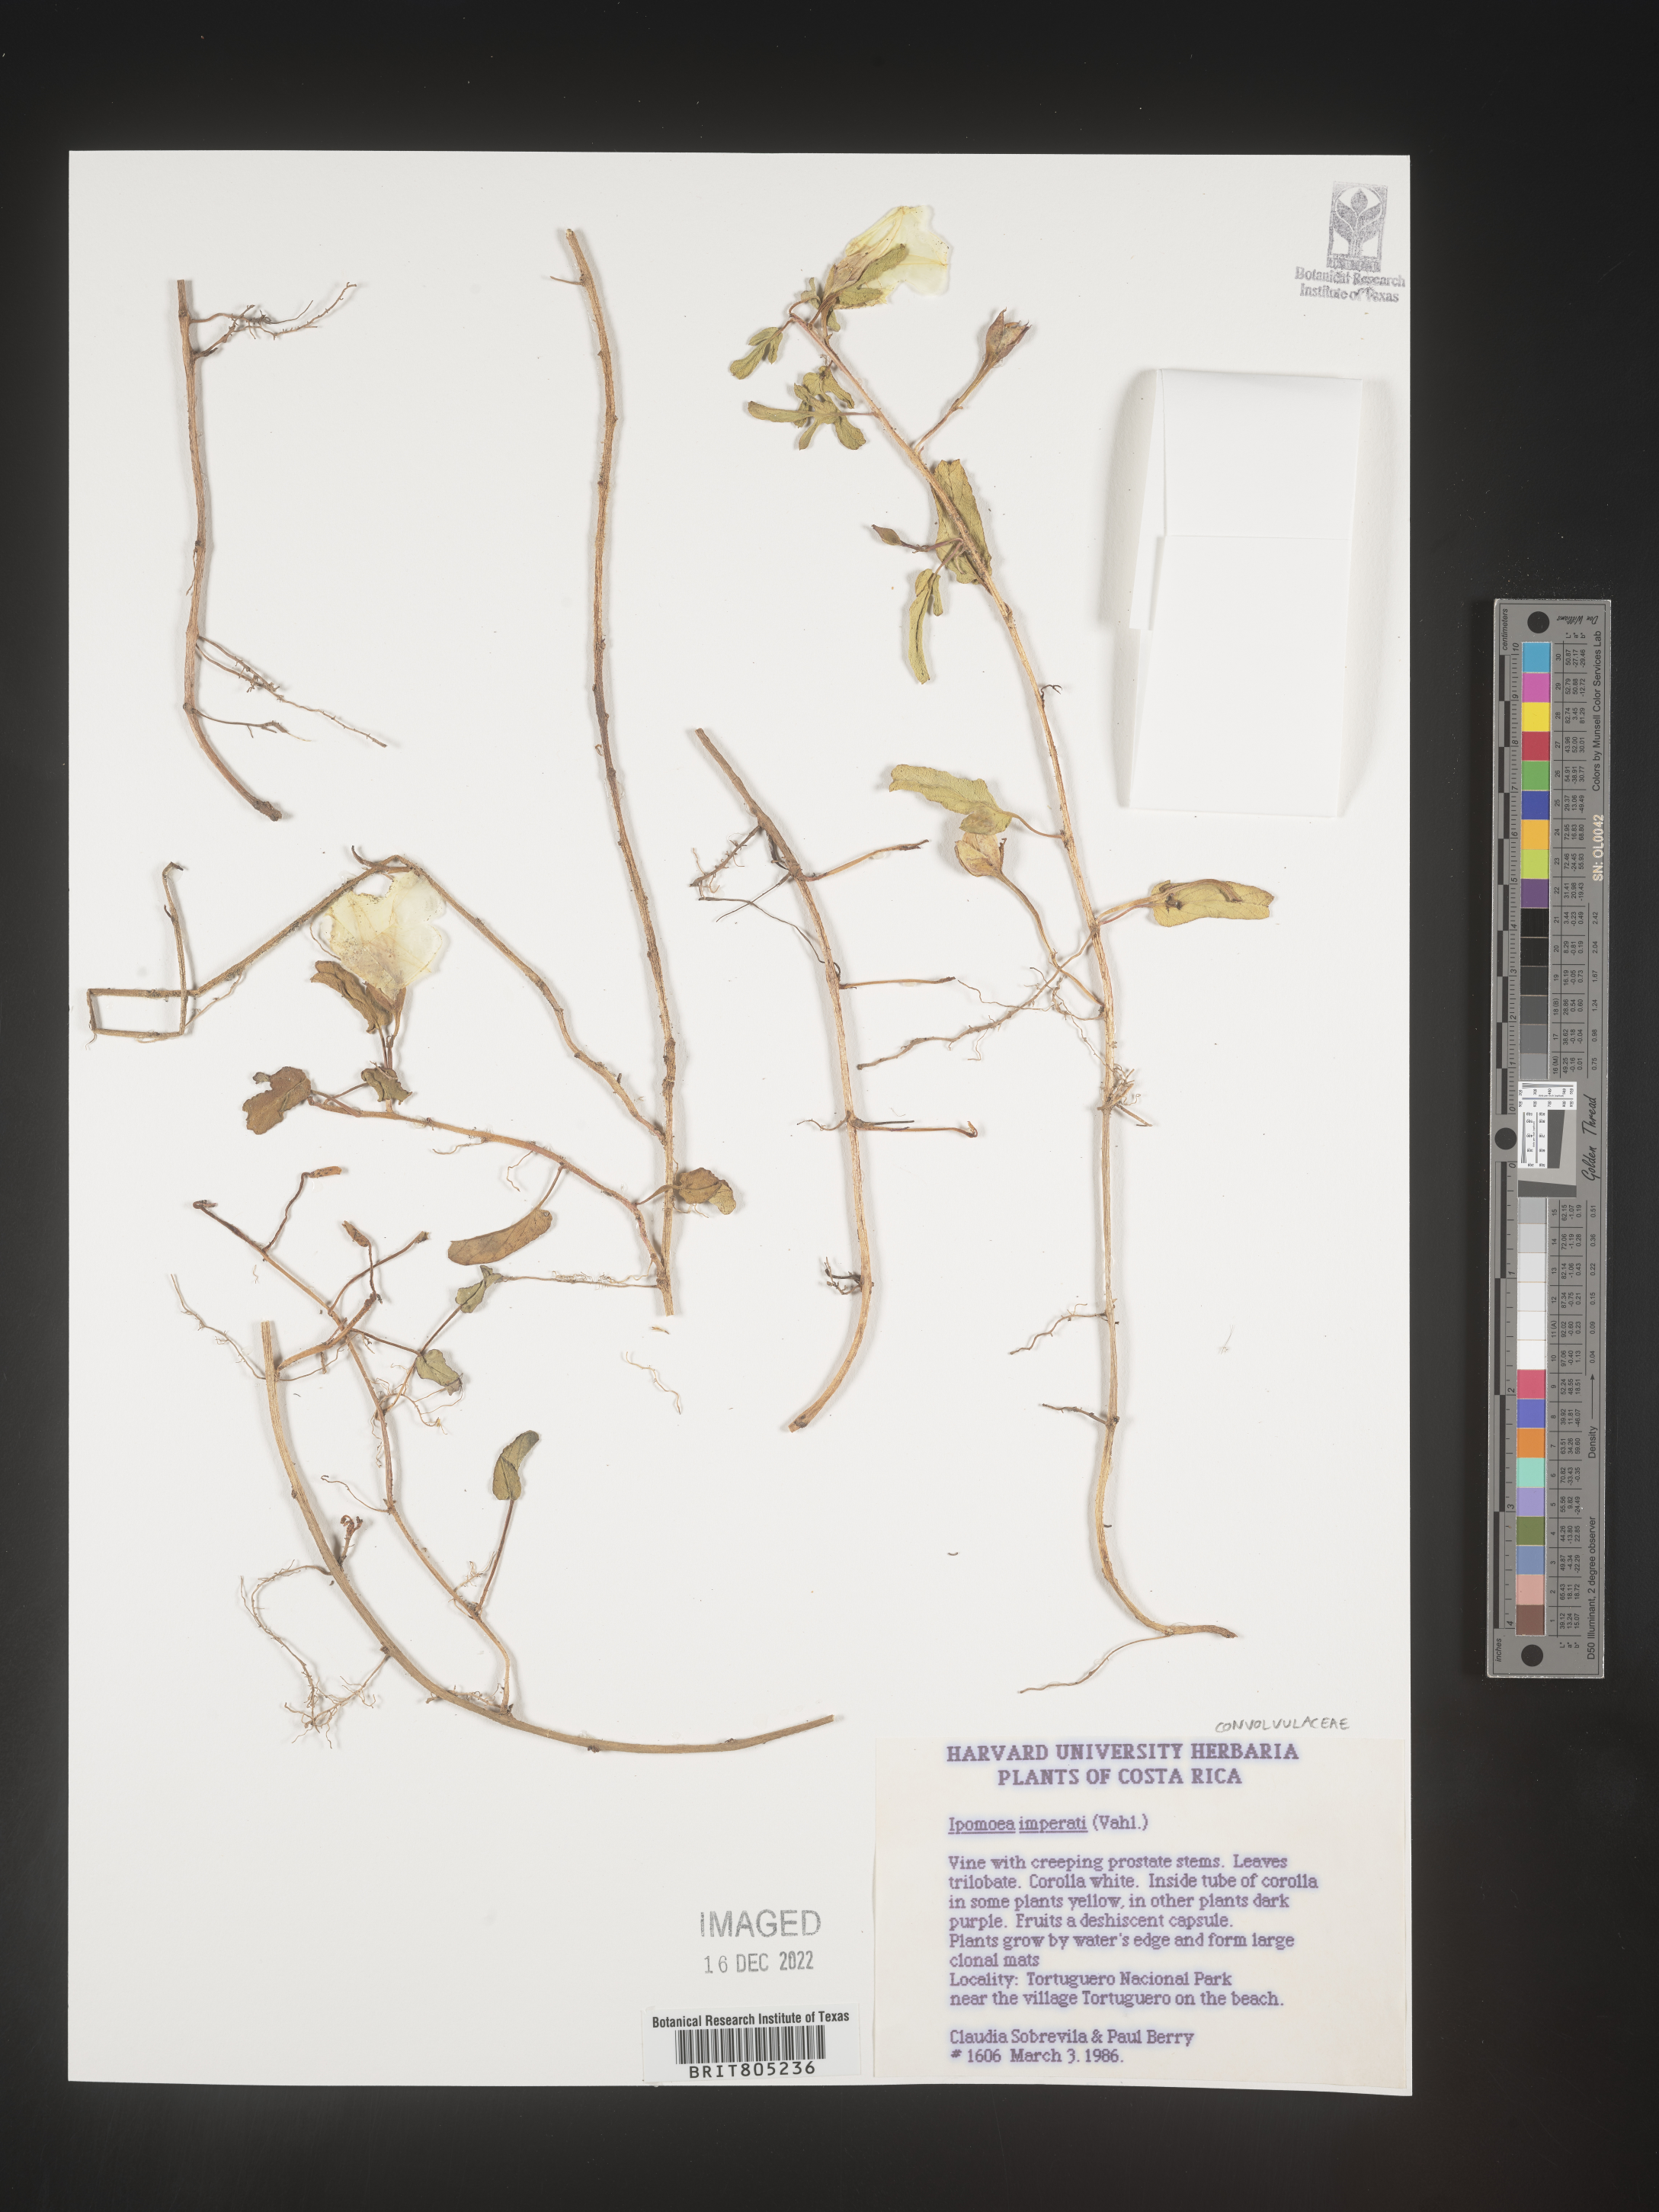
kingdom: Plantae
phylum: Tracheophyta
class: Magnoliopsida
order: Solanales
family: Convolvulaceae
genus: Ipomoea
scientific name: Ipomoea
